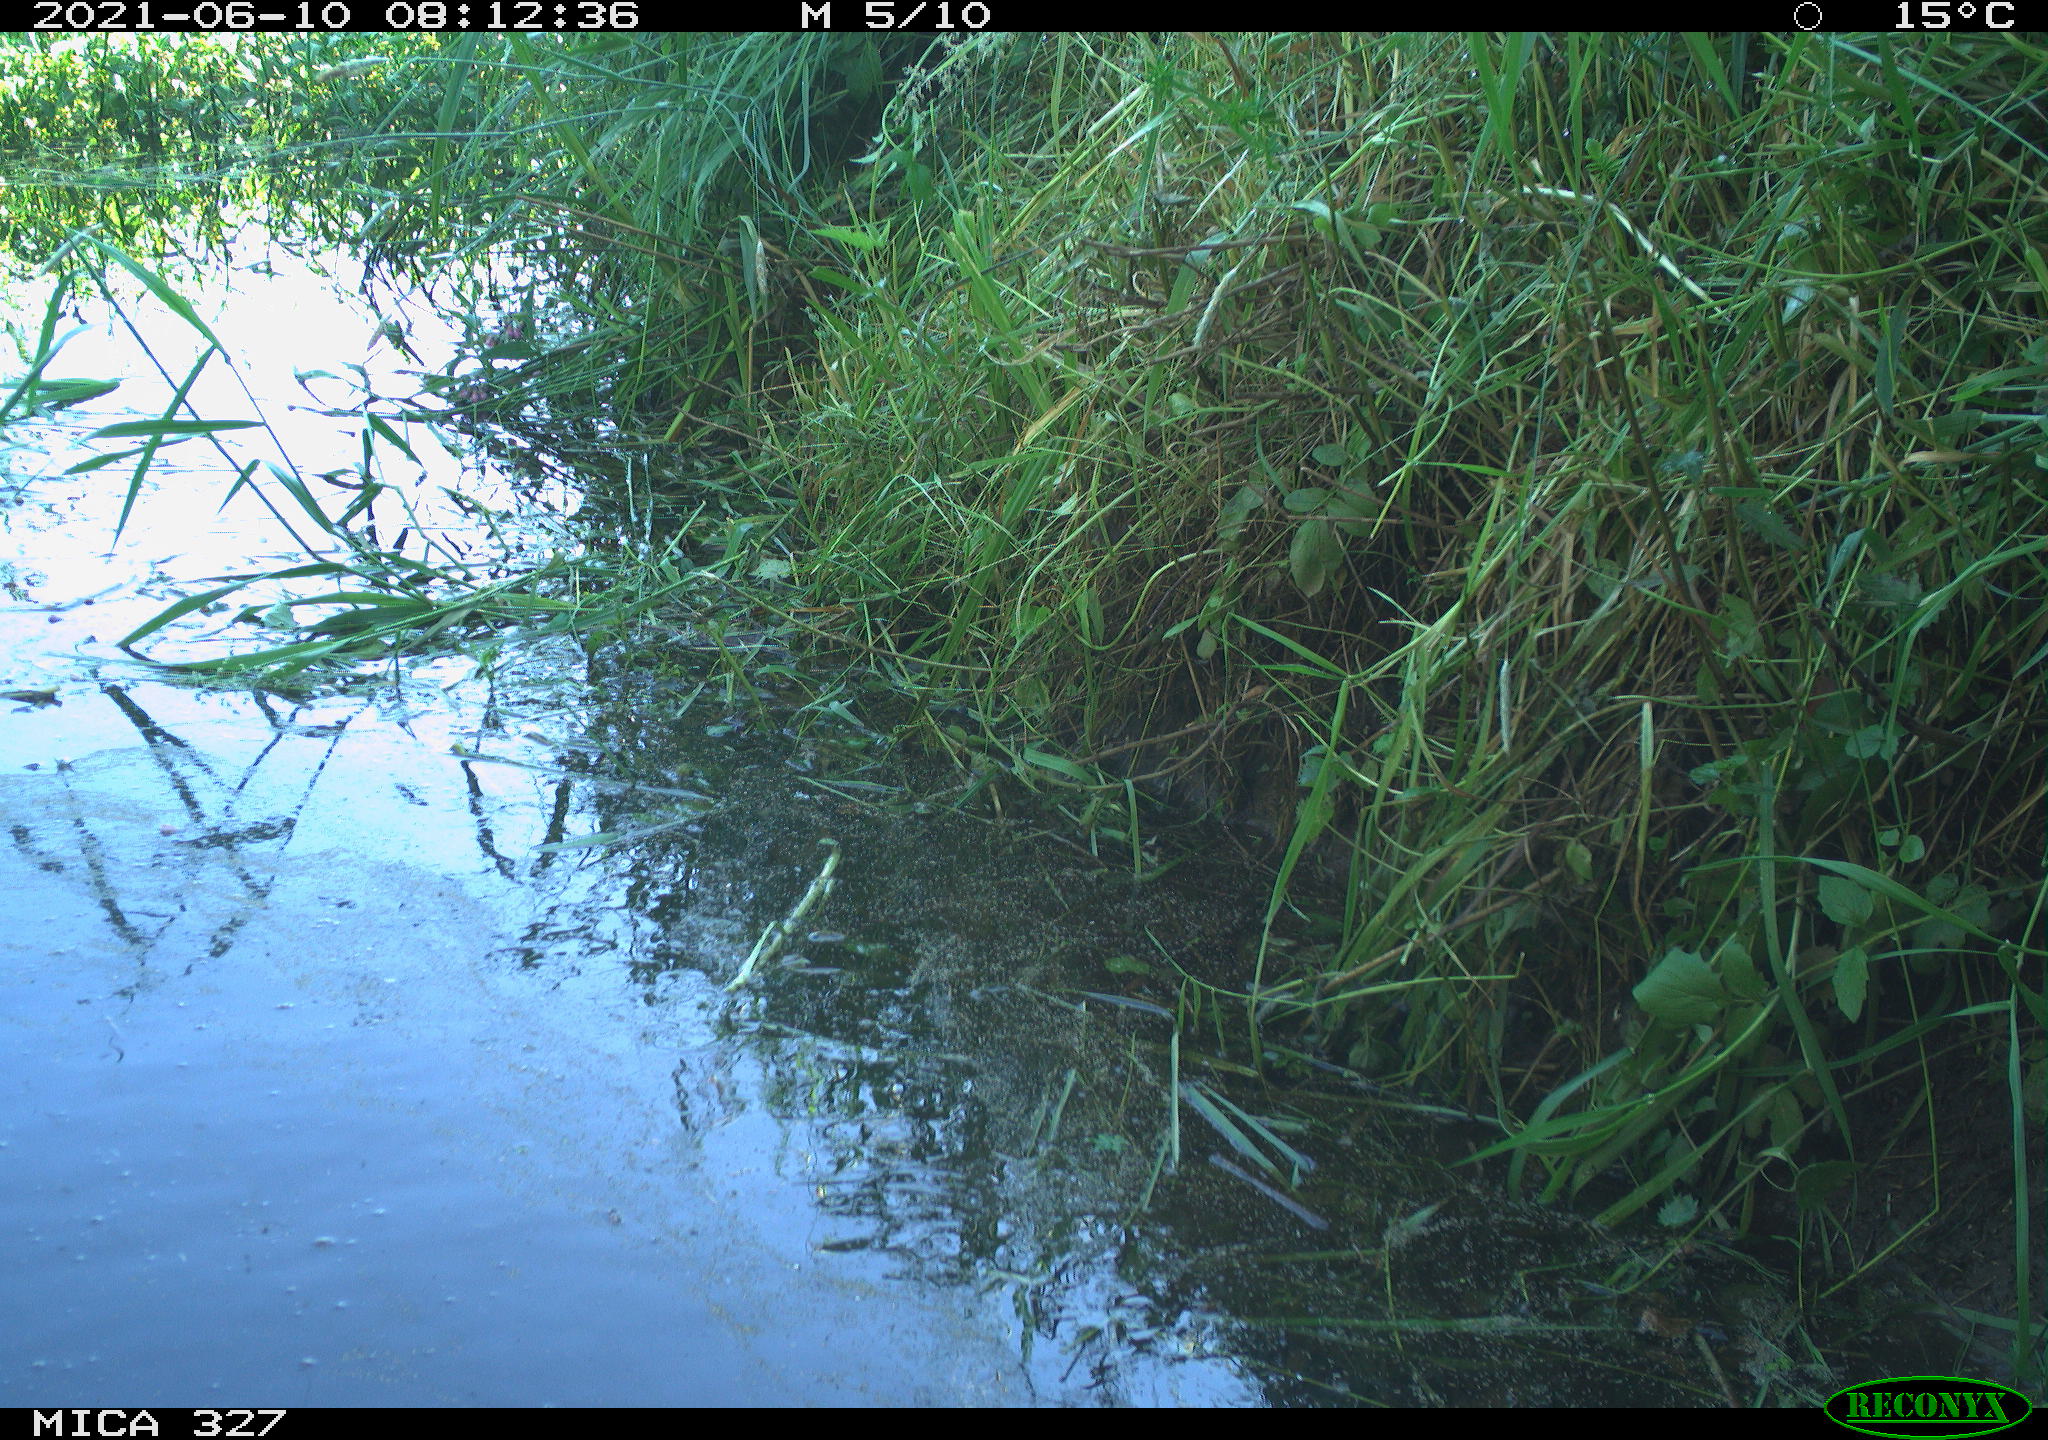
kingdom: Animalia
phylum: Chordata
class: Aves
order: Columbiformes
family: Columbidae
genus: Columba
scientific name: Columba palumbus
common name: Common wood pigeon
